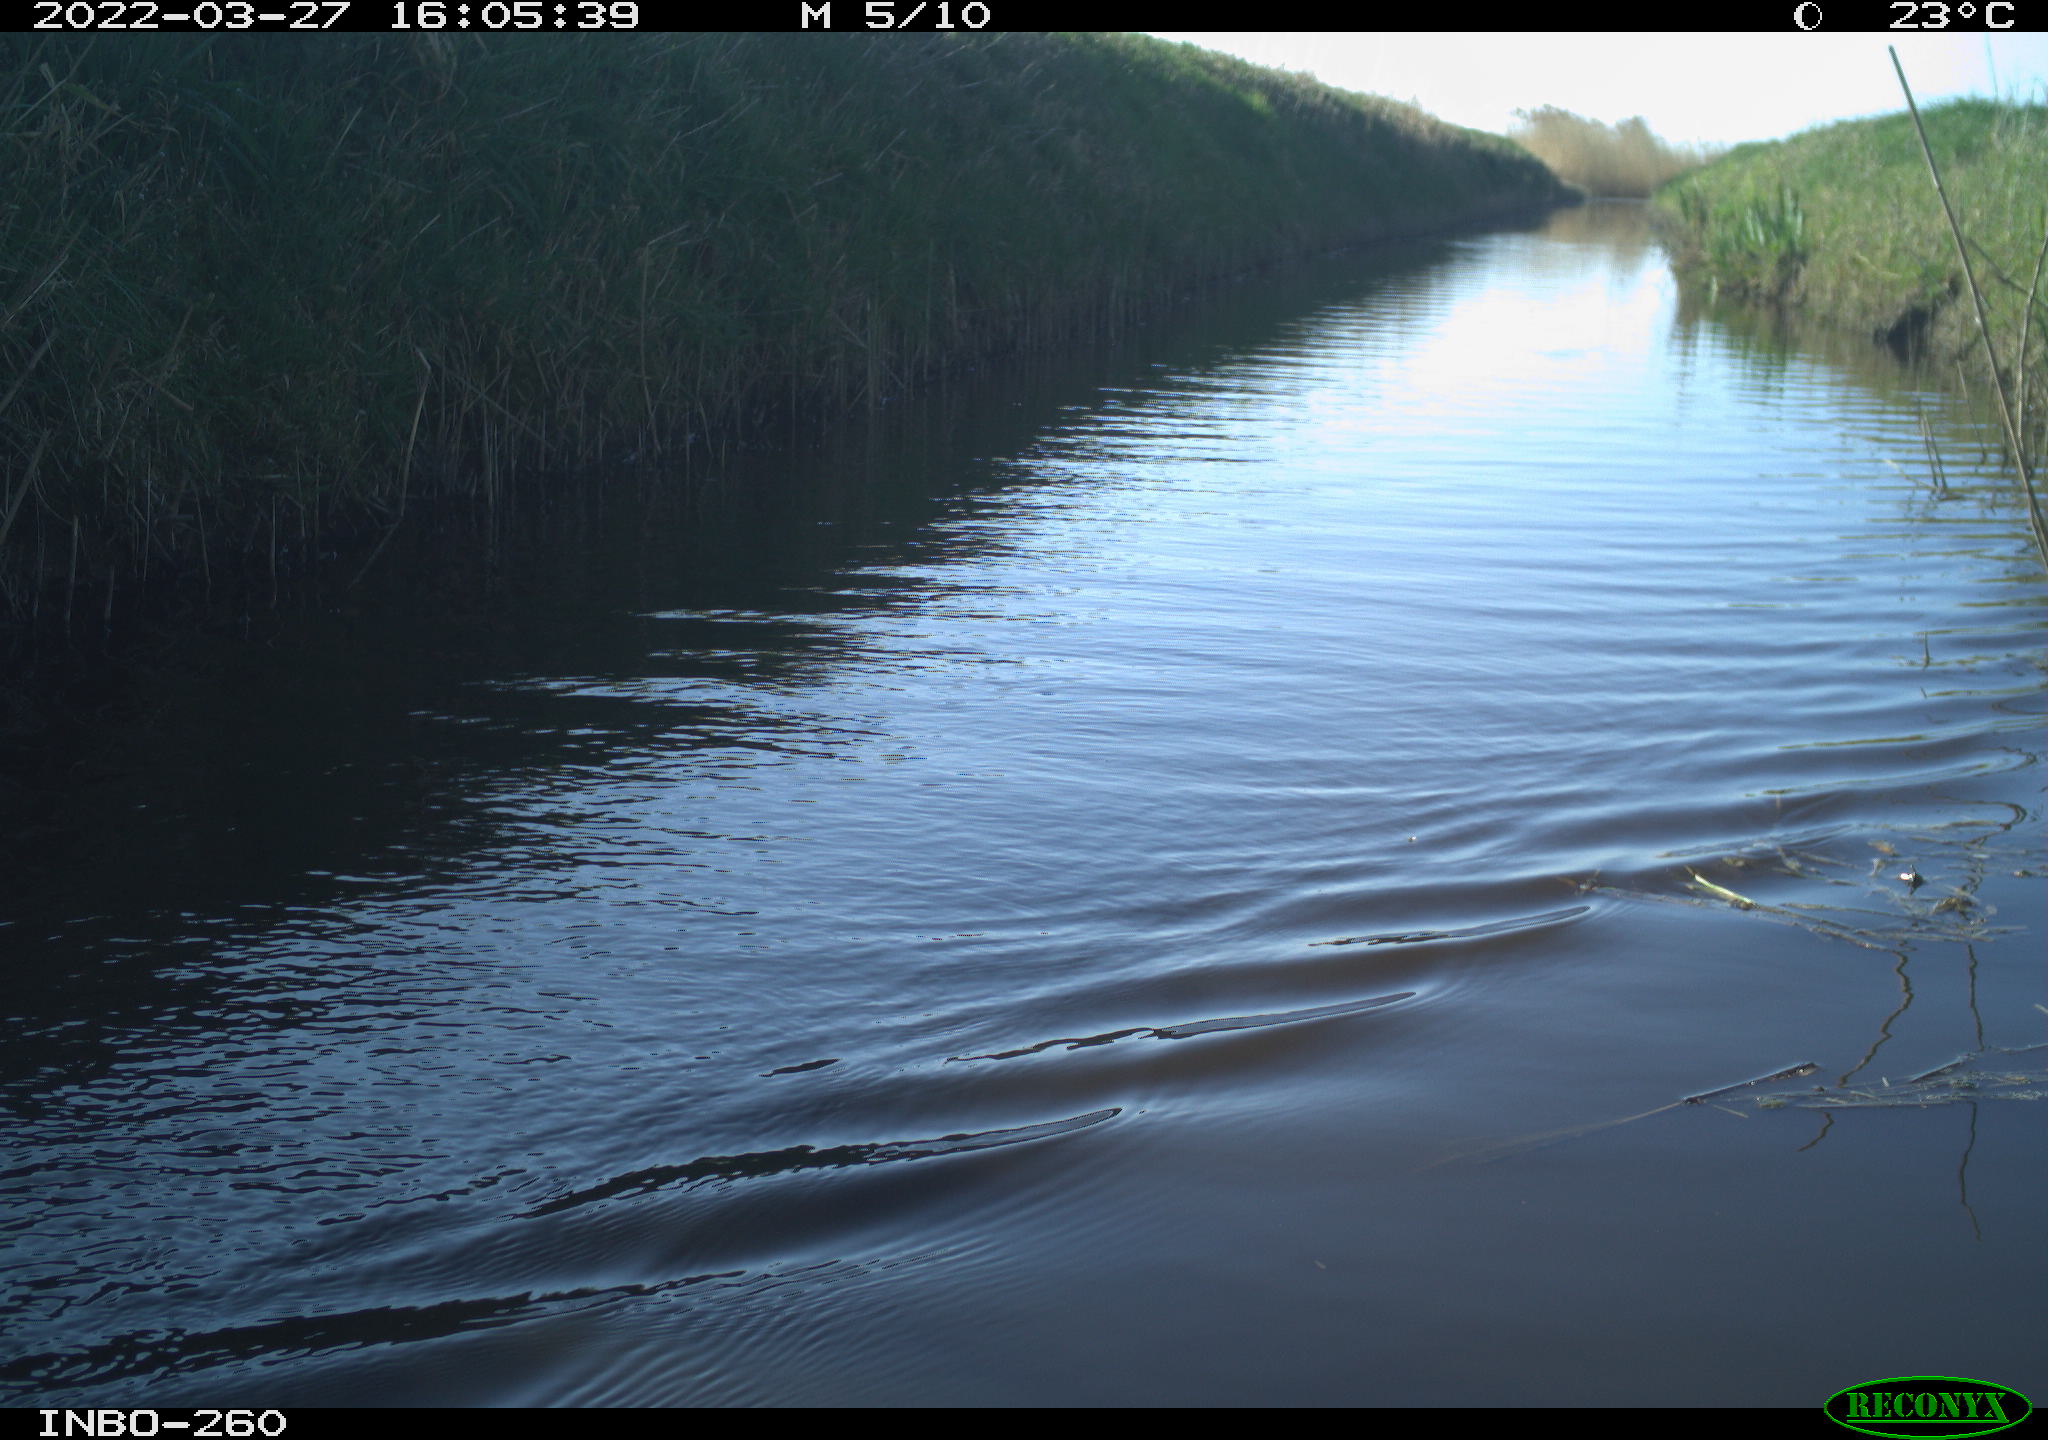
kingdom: Animalia
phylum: Chordata
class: Aves
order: Gruiformes
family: Rallidae
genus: Fulica
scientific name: Fulica atra
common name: Eurasian coot
